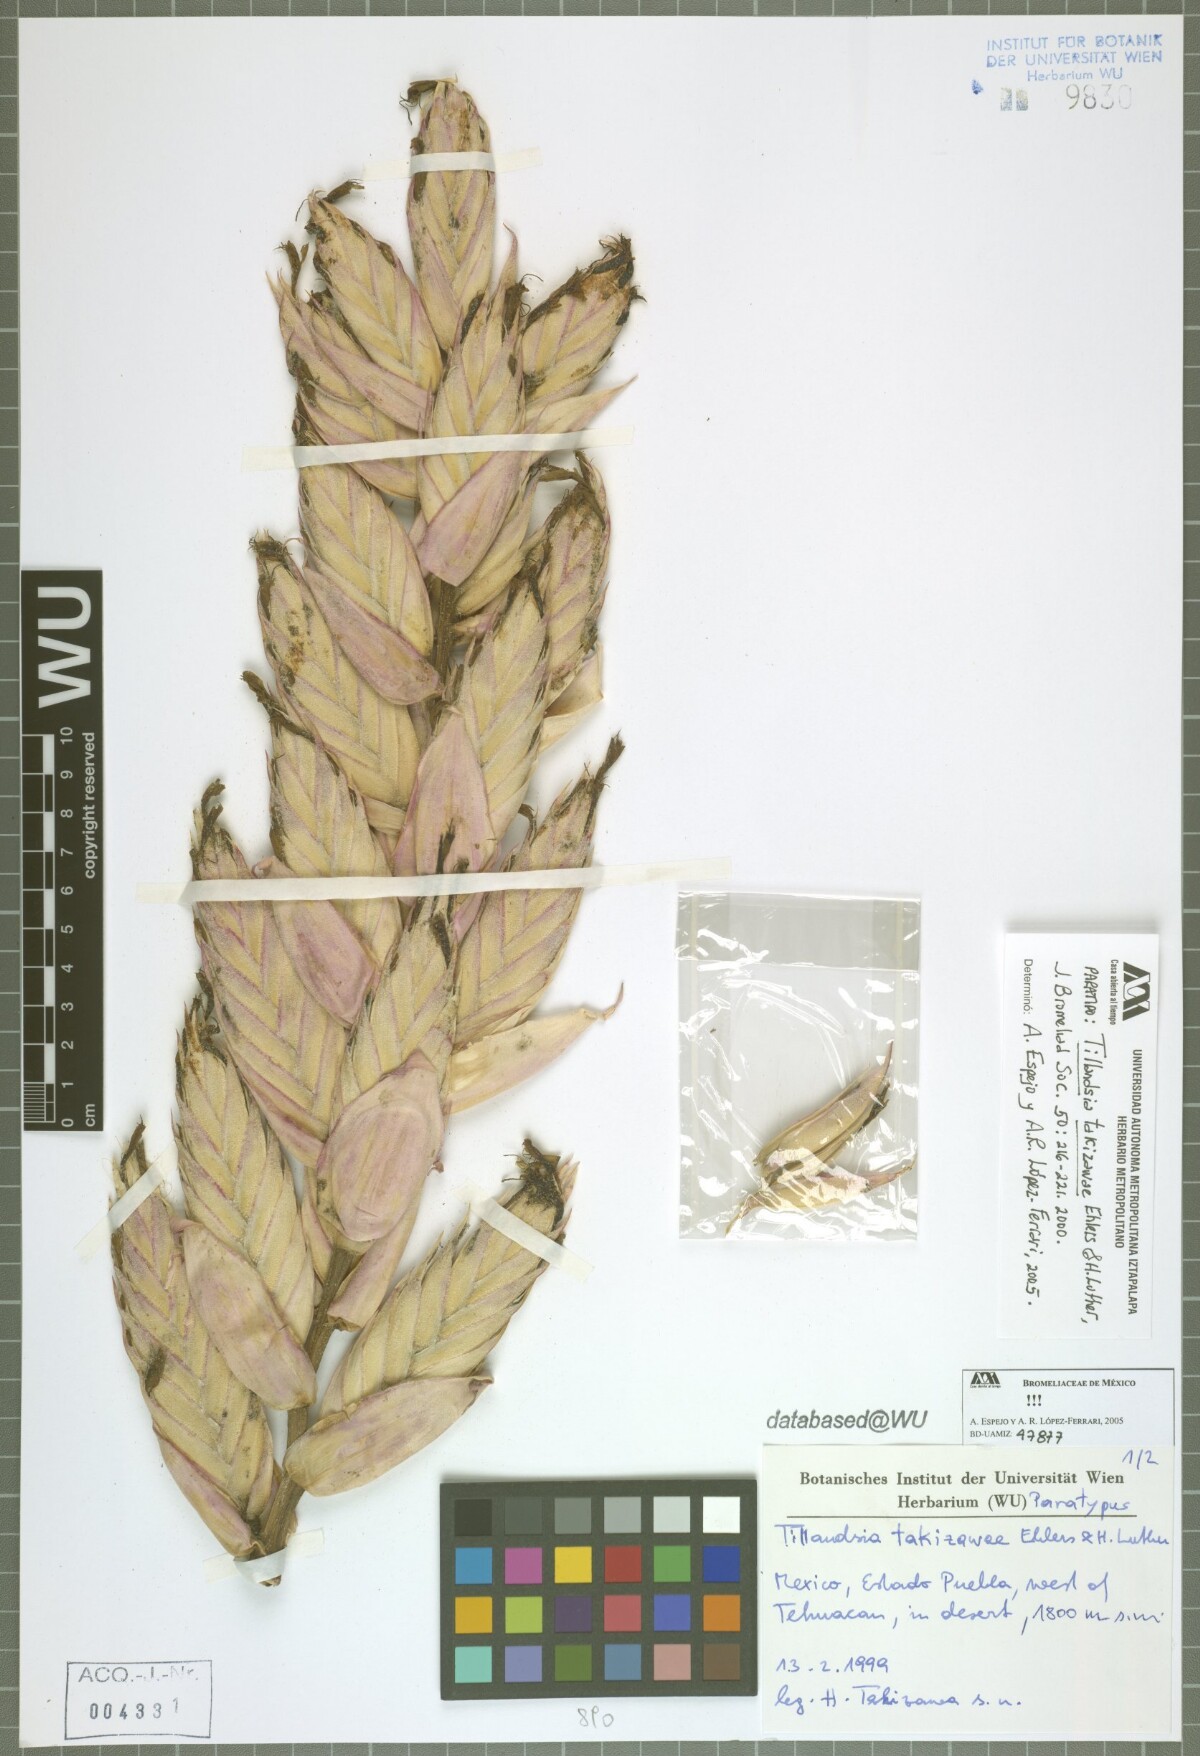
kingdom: Plantae
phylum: Tracheophyta
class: Liliopsida
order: Poales
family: Bromeliaceae
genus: Tillandsia
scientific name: Tillandsia takizawae
